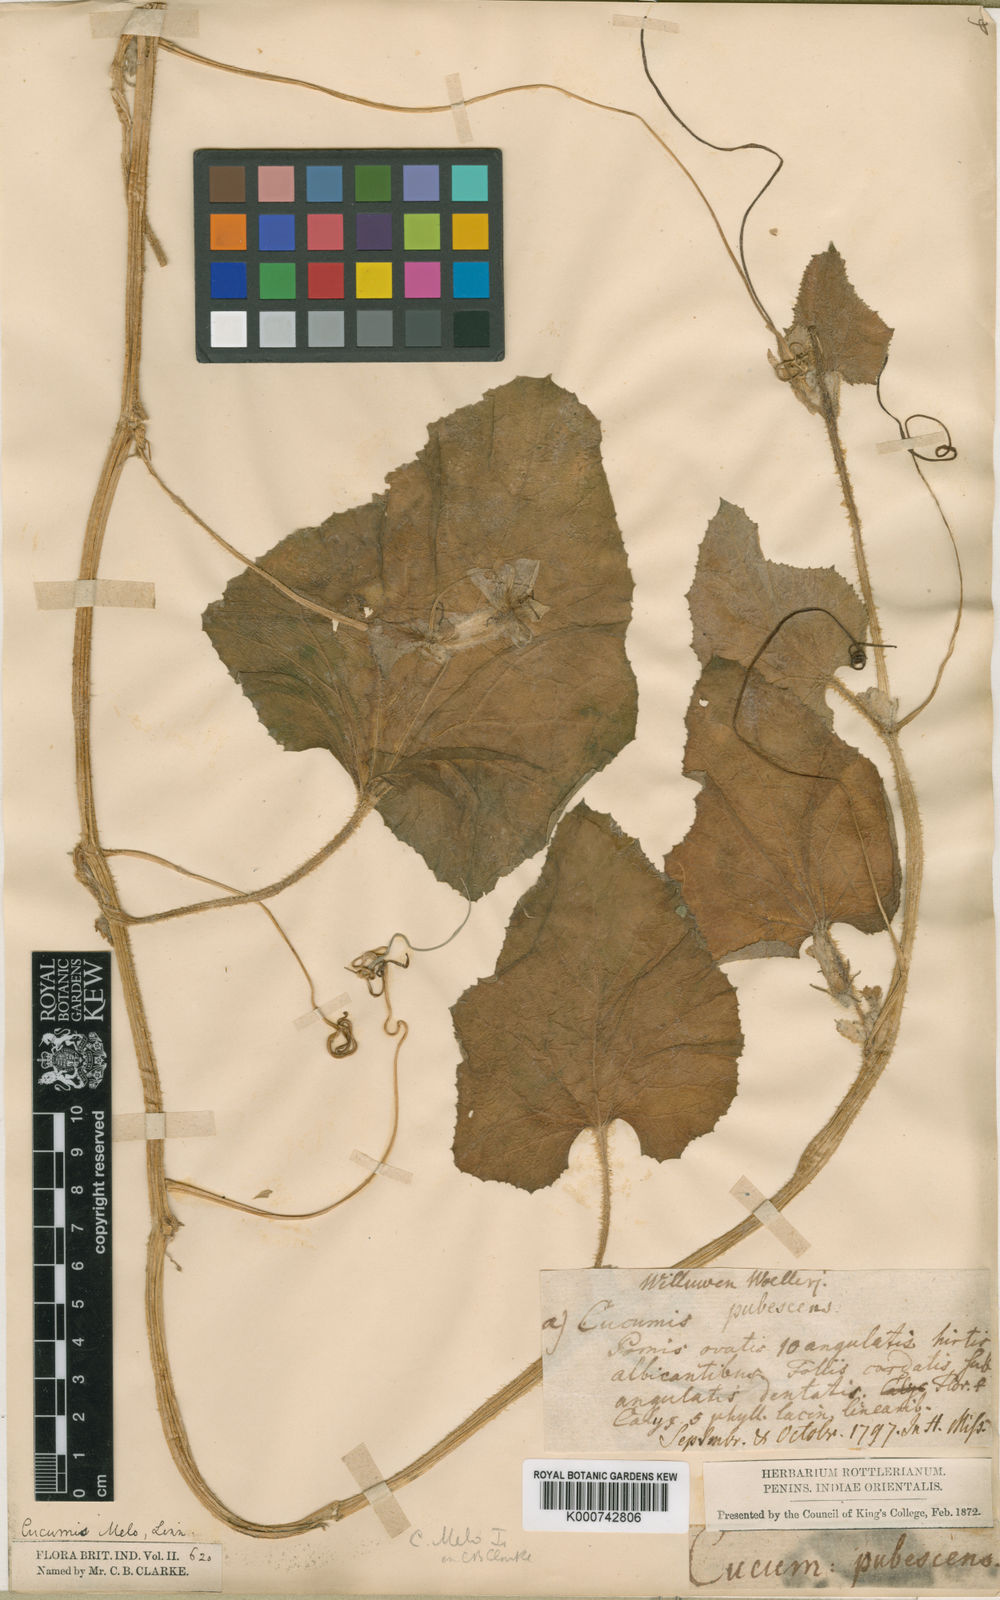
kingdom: Plantae
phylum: Tracheophyta
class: Magnoliopsida
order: Cucurbitales
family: Cucurbitaceae
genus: Cucumis
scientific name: Cucumis melo
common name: Melon
